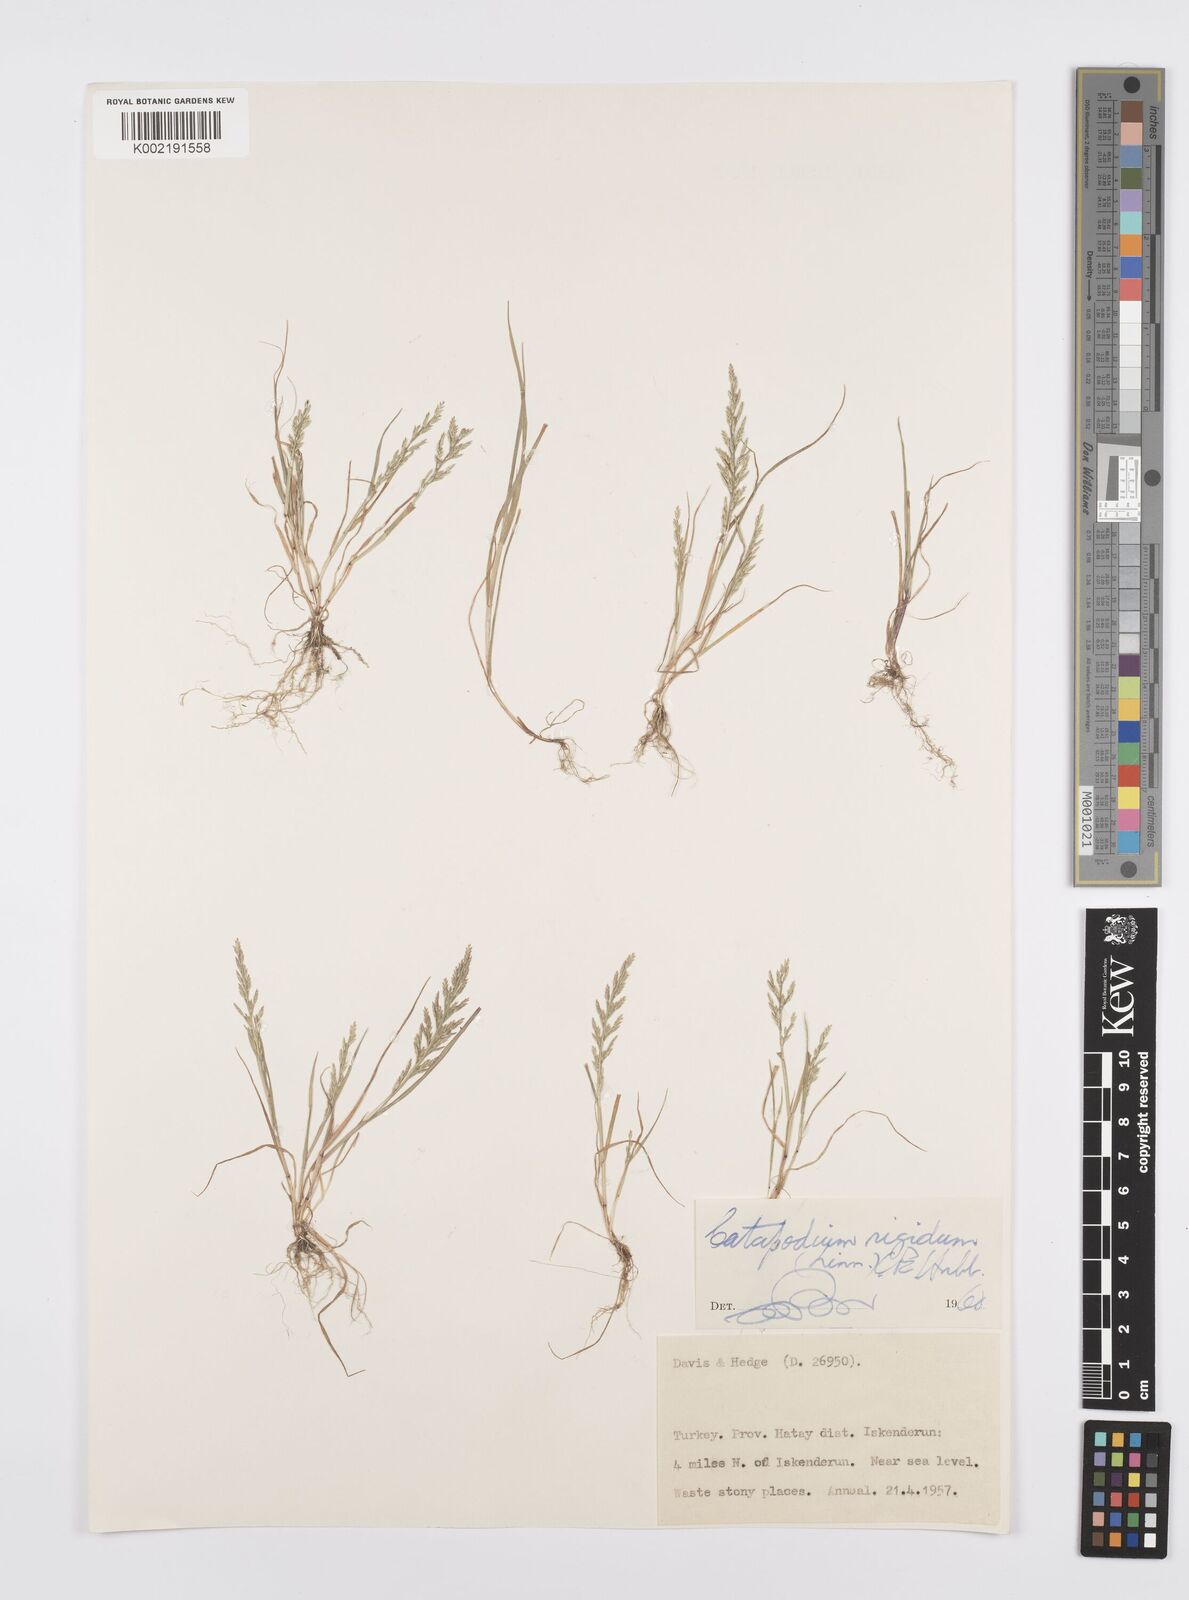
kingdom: Plantae
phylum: Tracheophyta
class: Liliopsida
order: Poales
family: Poaceae
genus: Catapodium
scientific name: Catapodium rigidum
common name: Fern-grass
